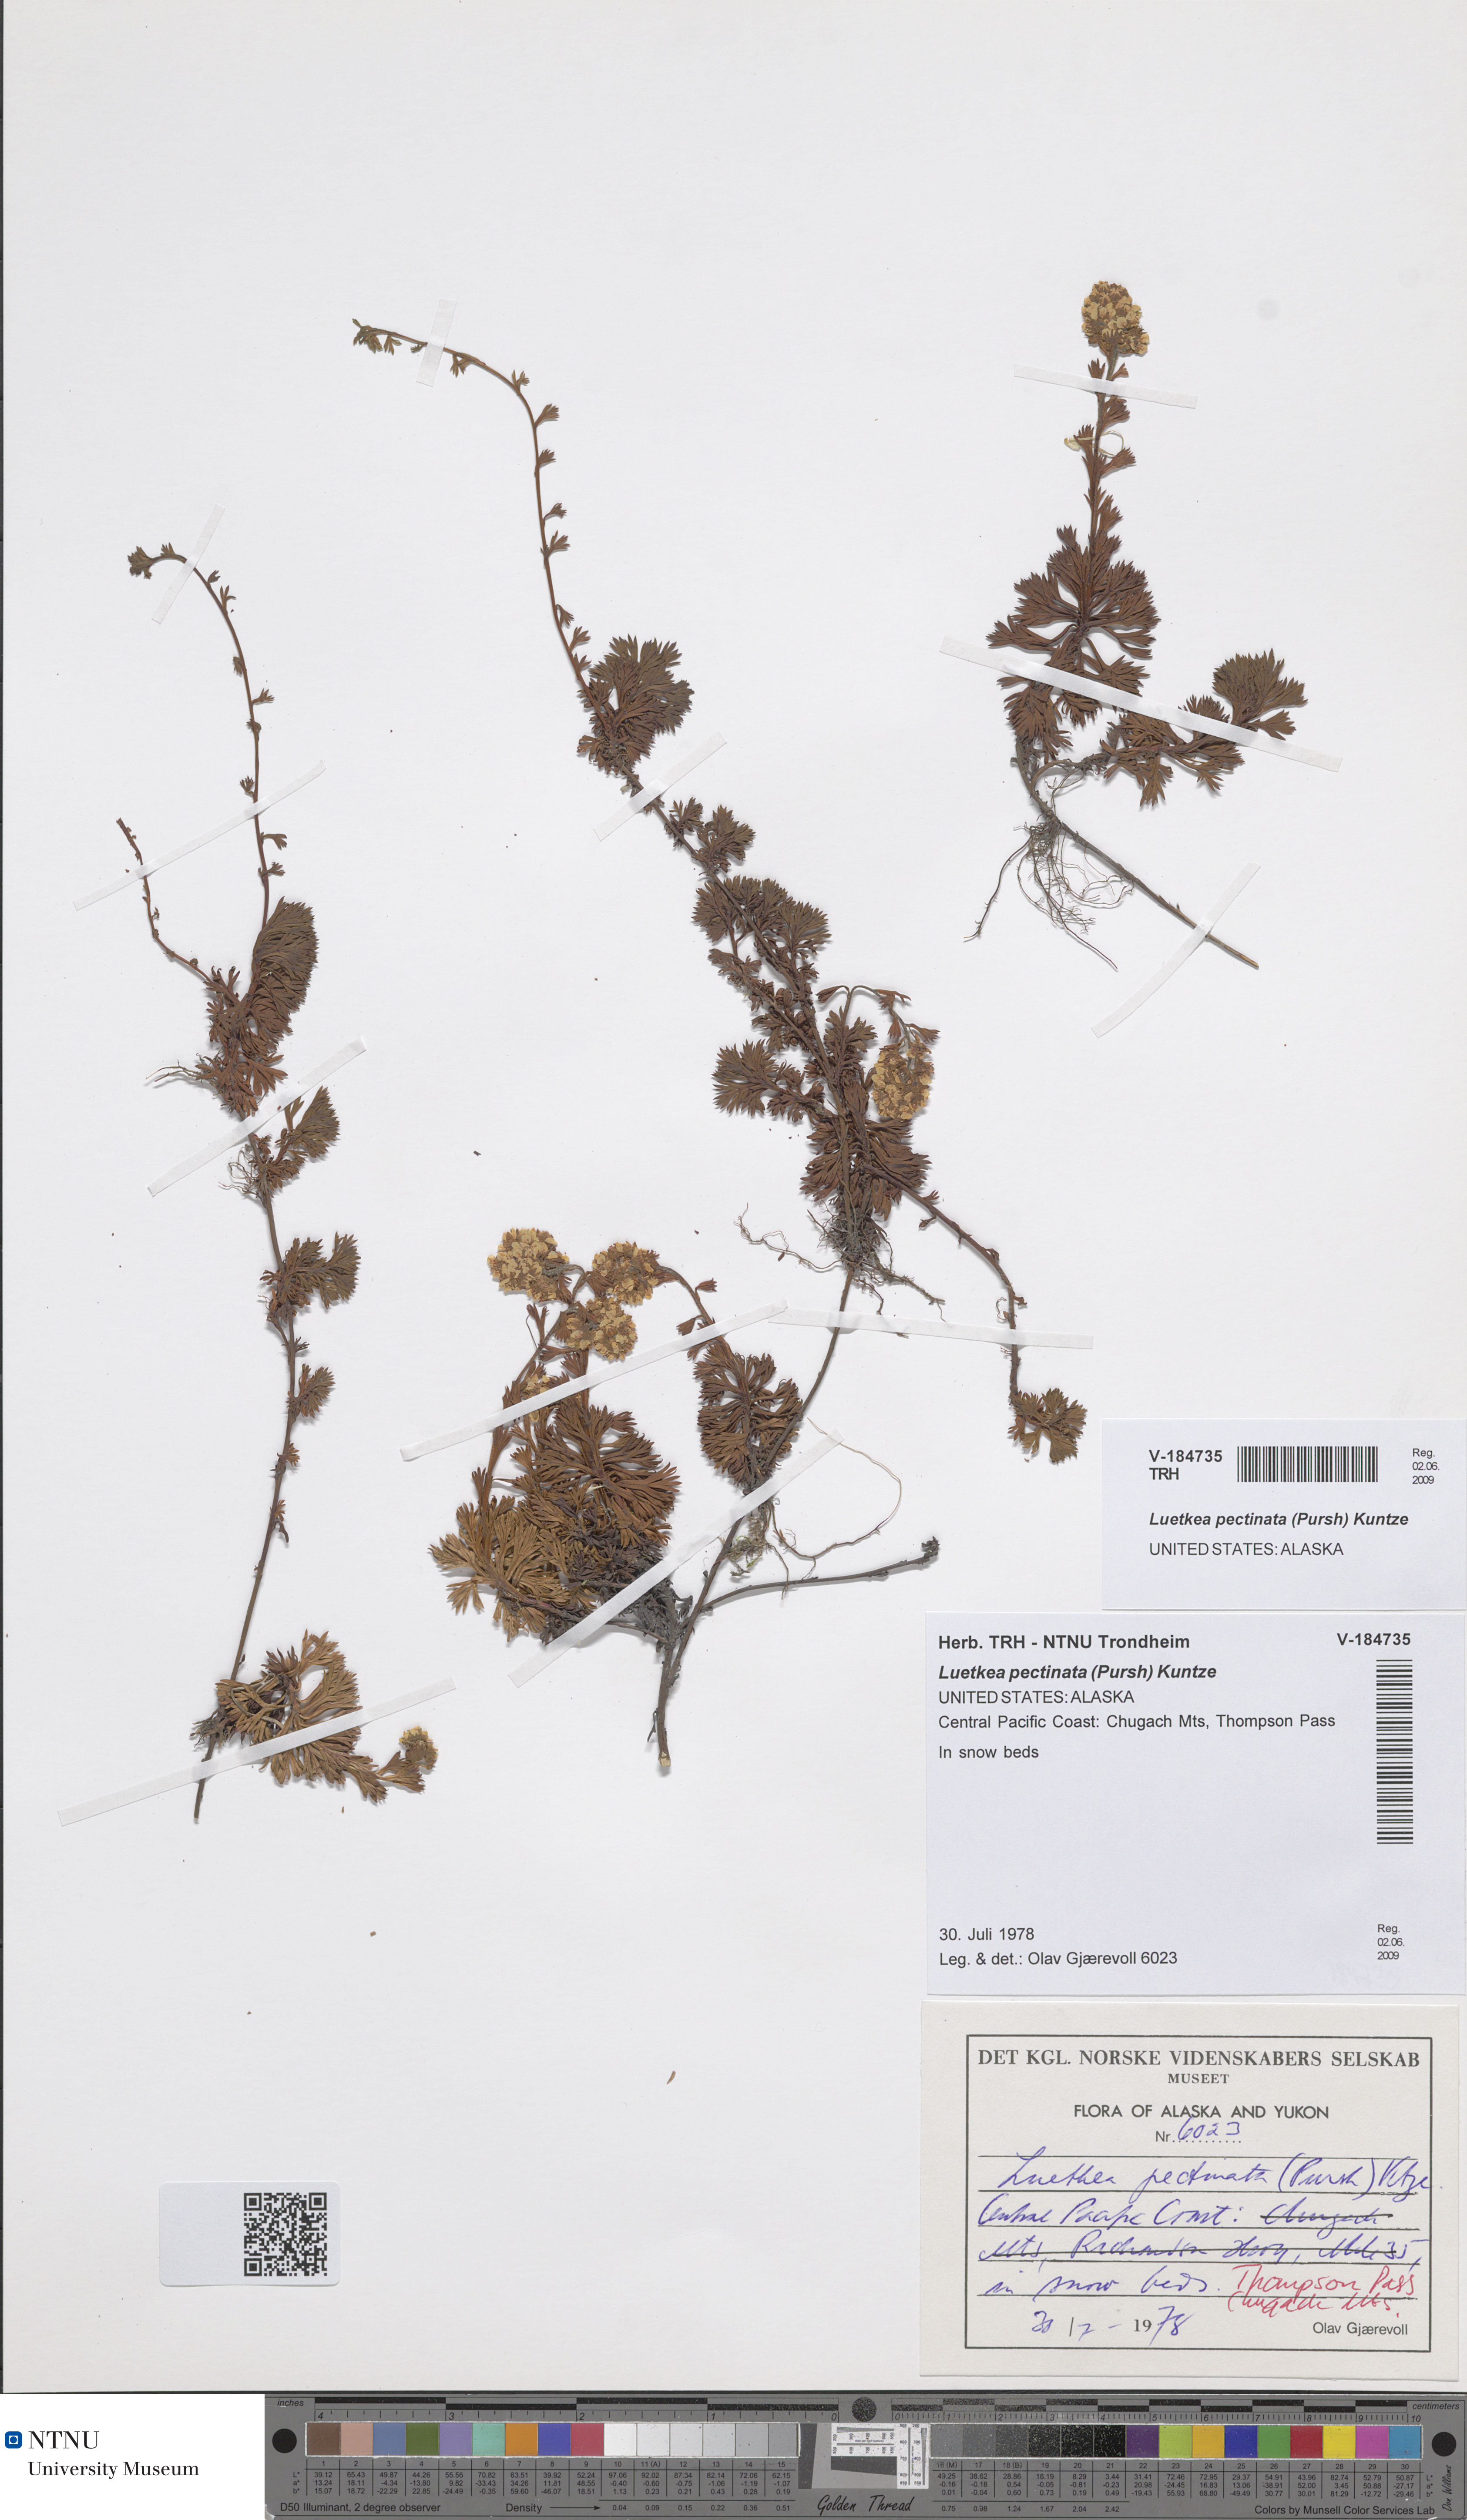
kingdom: Plantae
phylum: Tracheophyta
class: Magnoliopsida
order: Rosales
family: Rosaceae
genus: Luetkea
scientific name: Luetkea pectinata
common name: Partridgefoot
